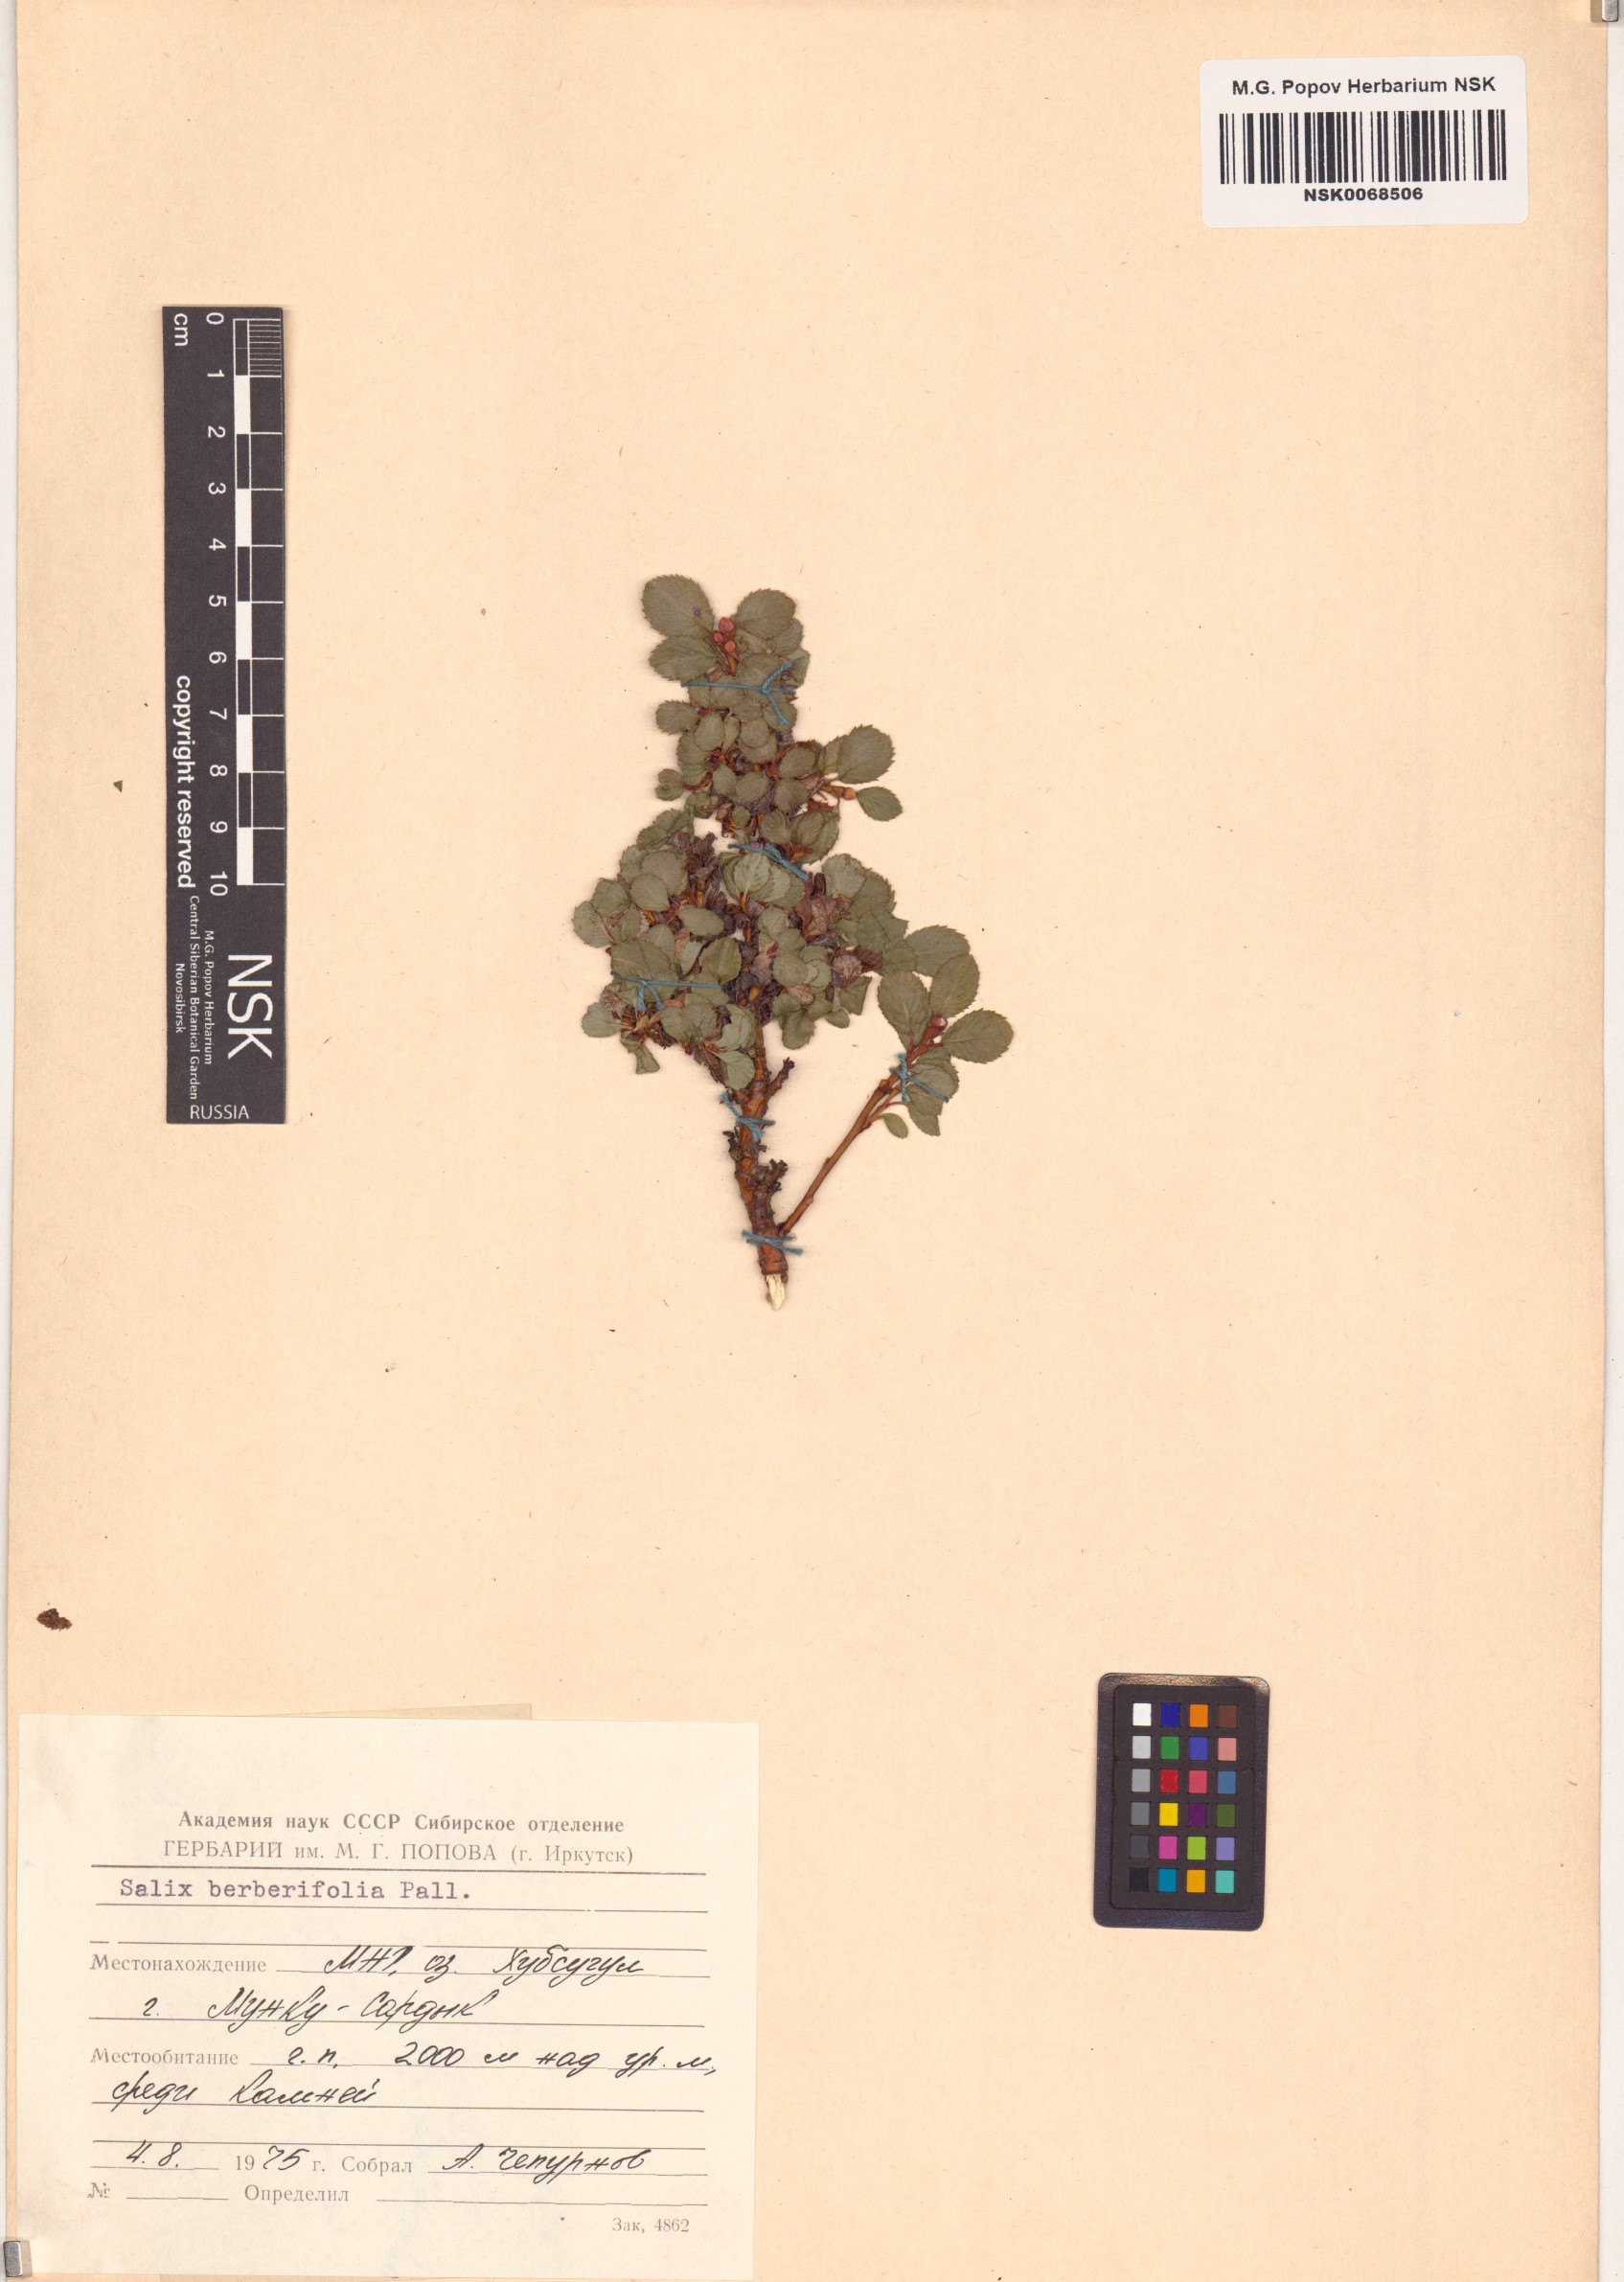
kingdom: Plantae
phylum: Tracheophyta
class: Magnoliopsida
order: Malpighiales
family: Salicaceae
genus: Salix
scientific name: Salix berberifolia
